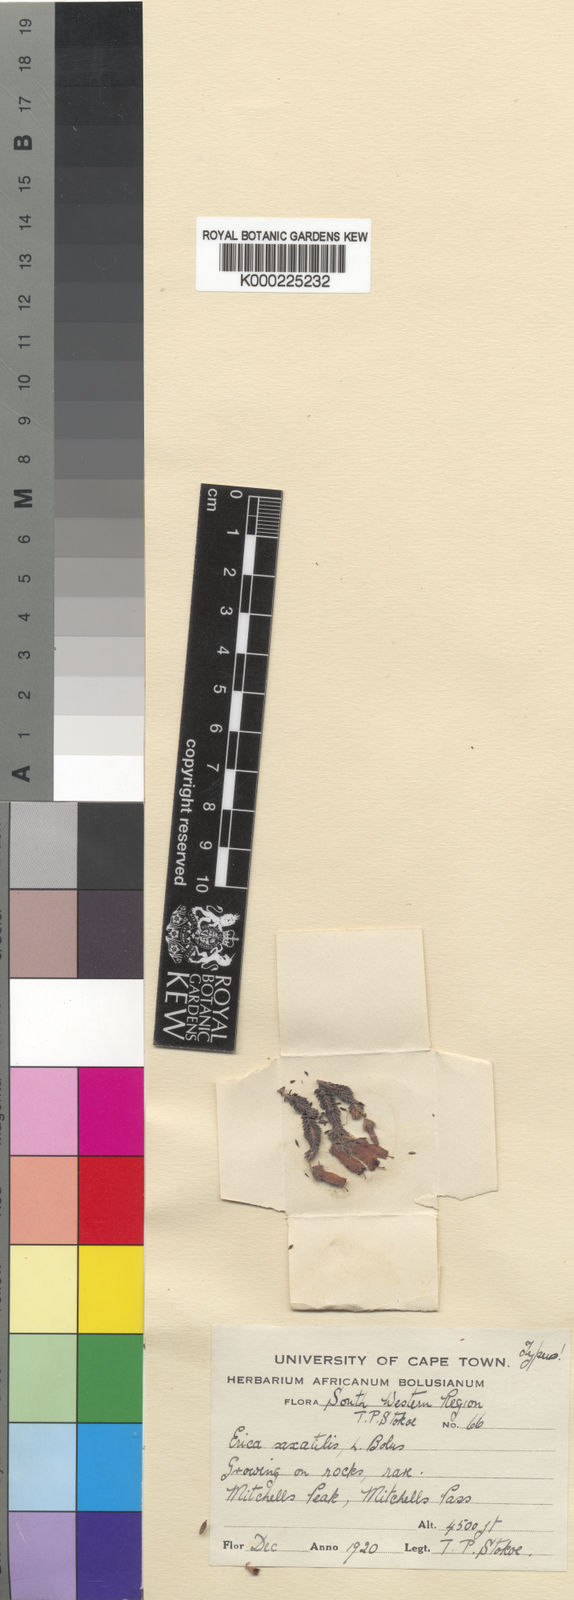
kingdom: Plantae
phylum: Tracheophyta
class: Magnoliopsida
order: Ericales
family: Ericaceae
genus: Erica
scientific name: Erica
